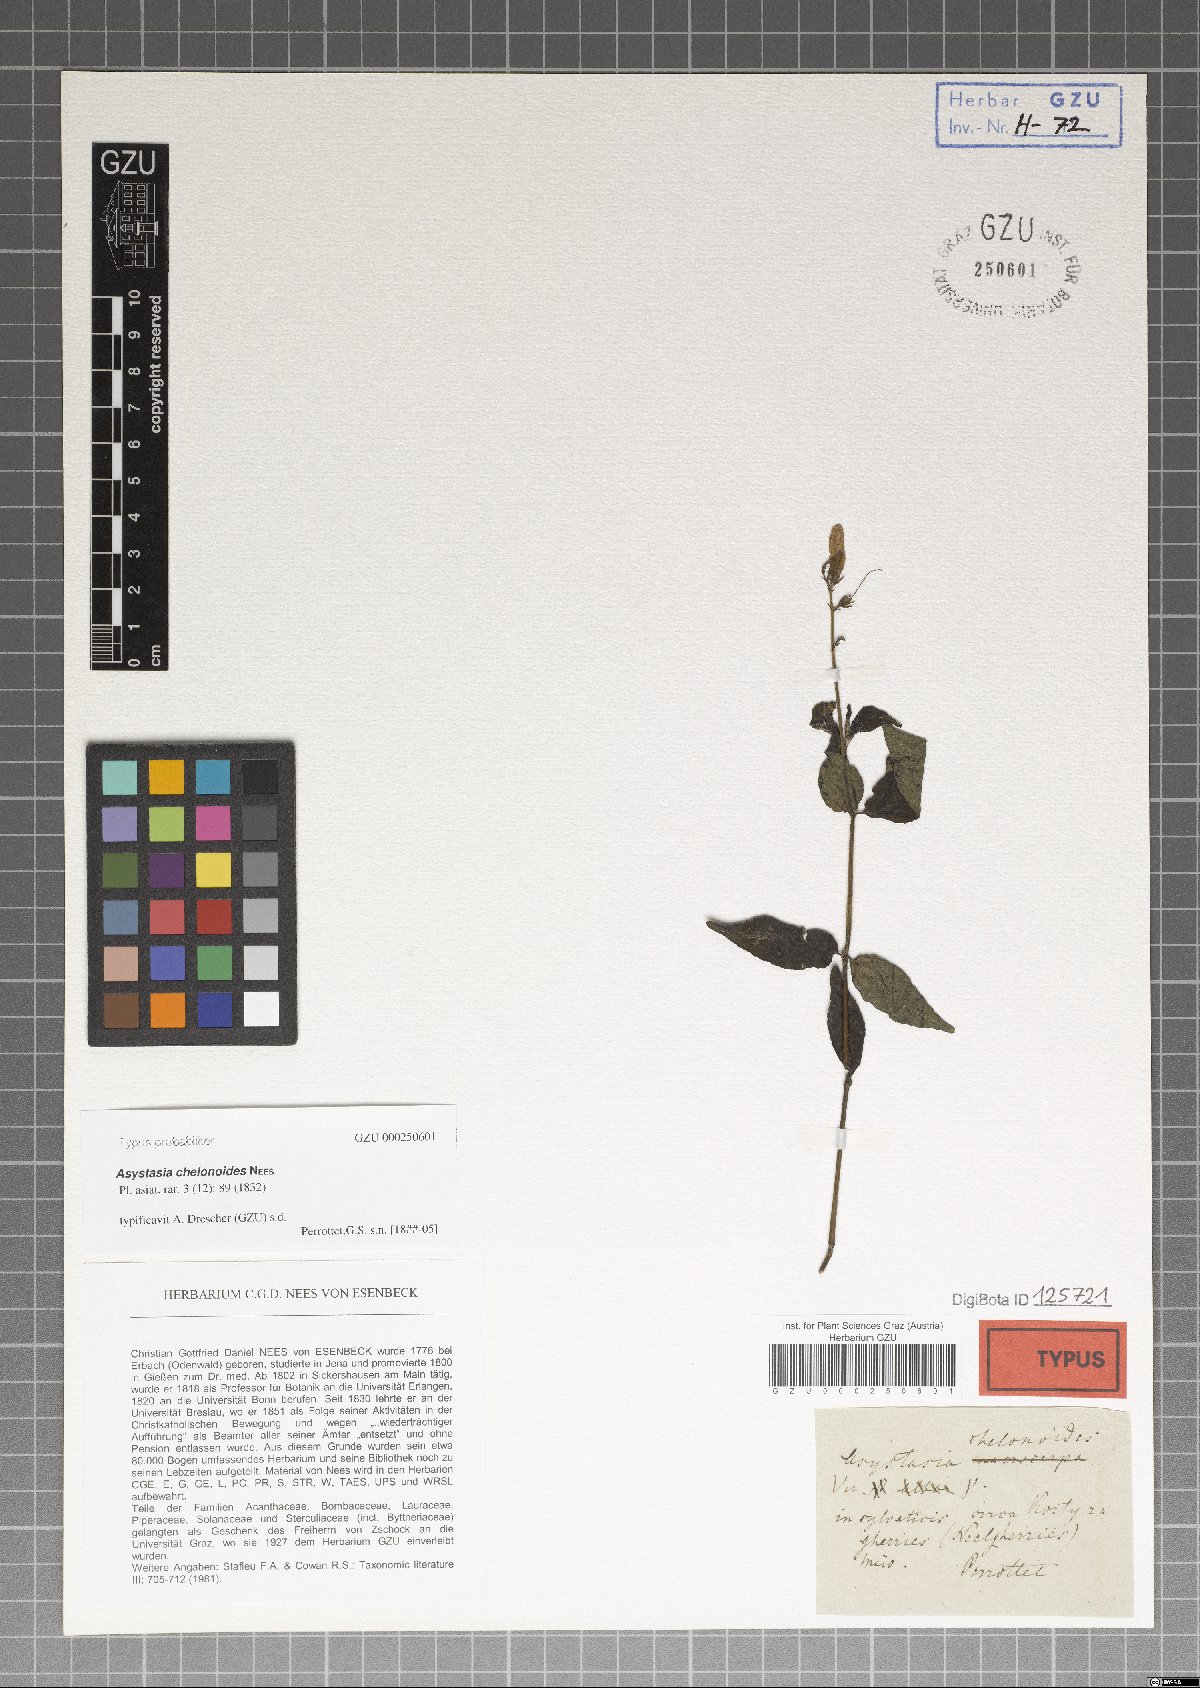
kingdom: Plantae
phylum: Tracheophyta
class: Magnoliopsida
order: Lamiales
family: Acanthaceae
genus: Asystasia
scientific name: Asystasia chelonoides
